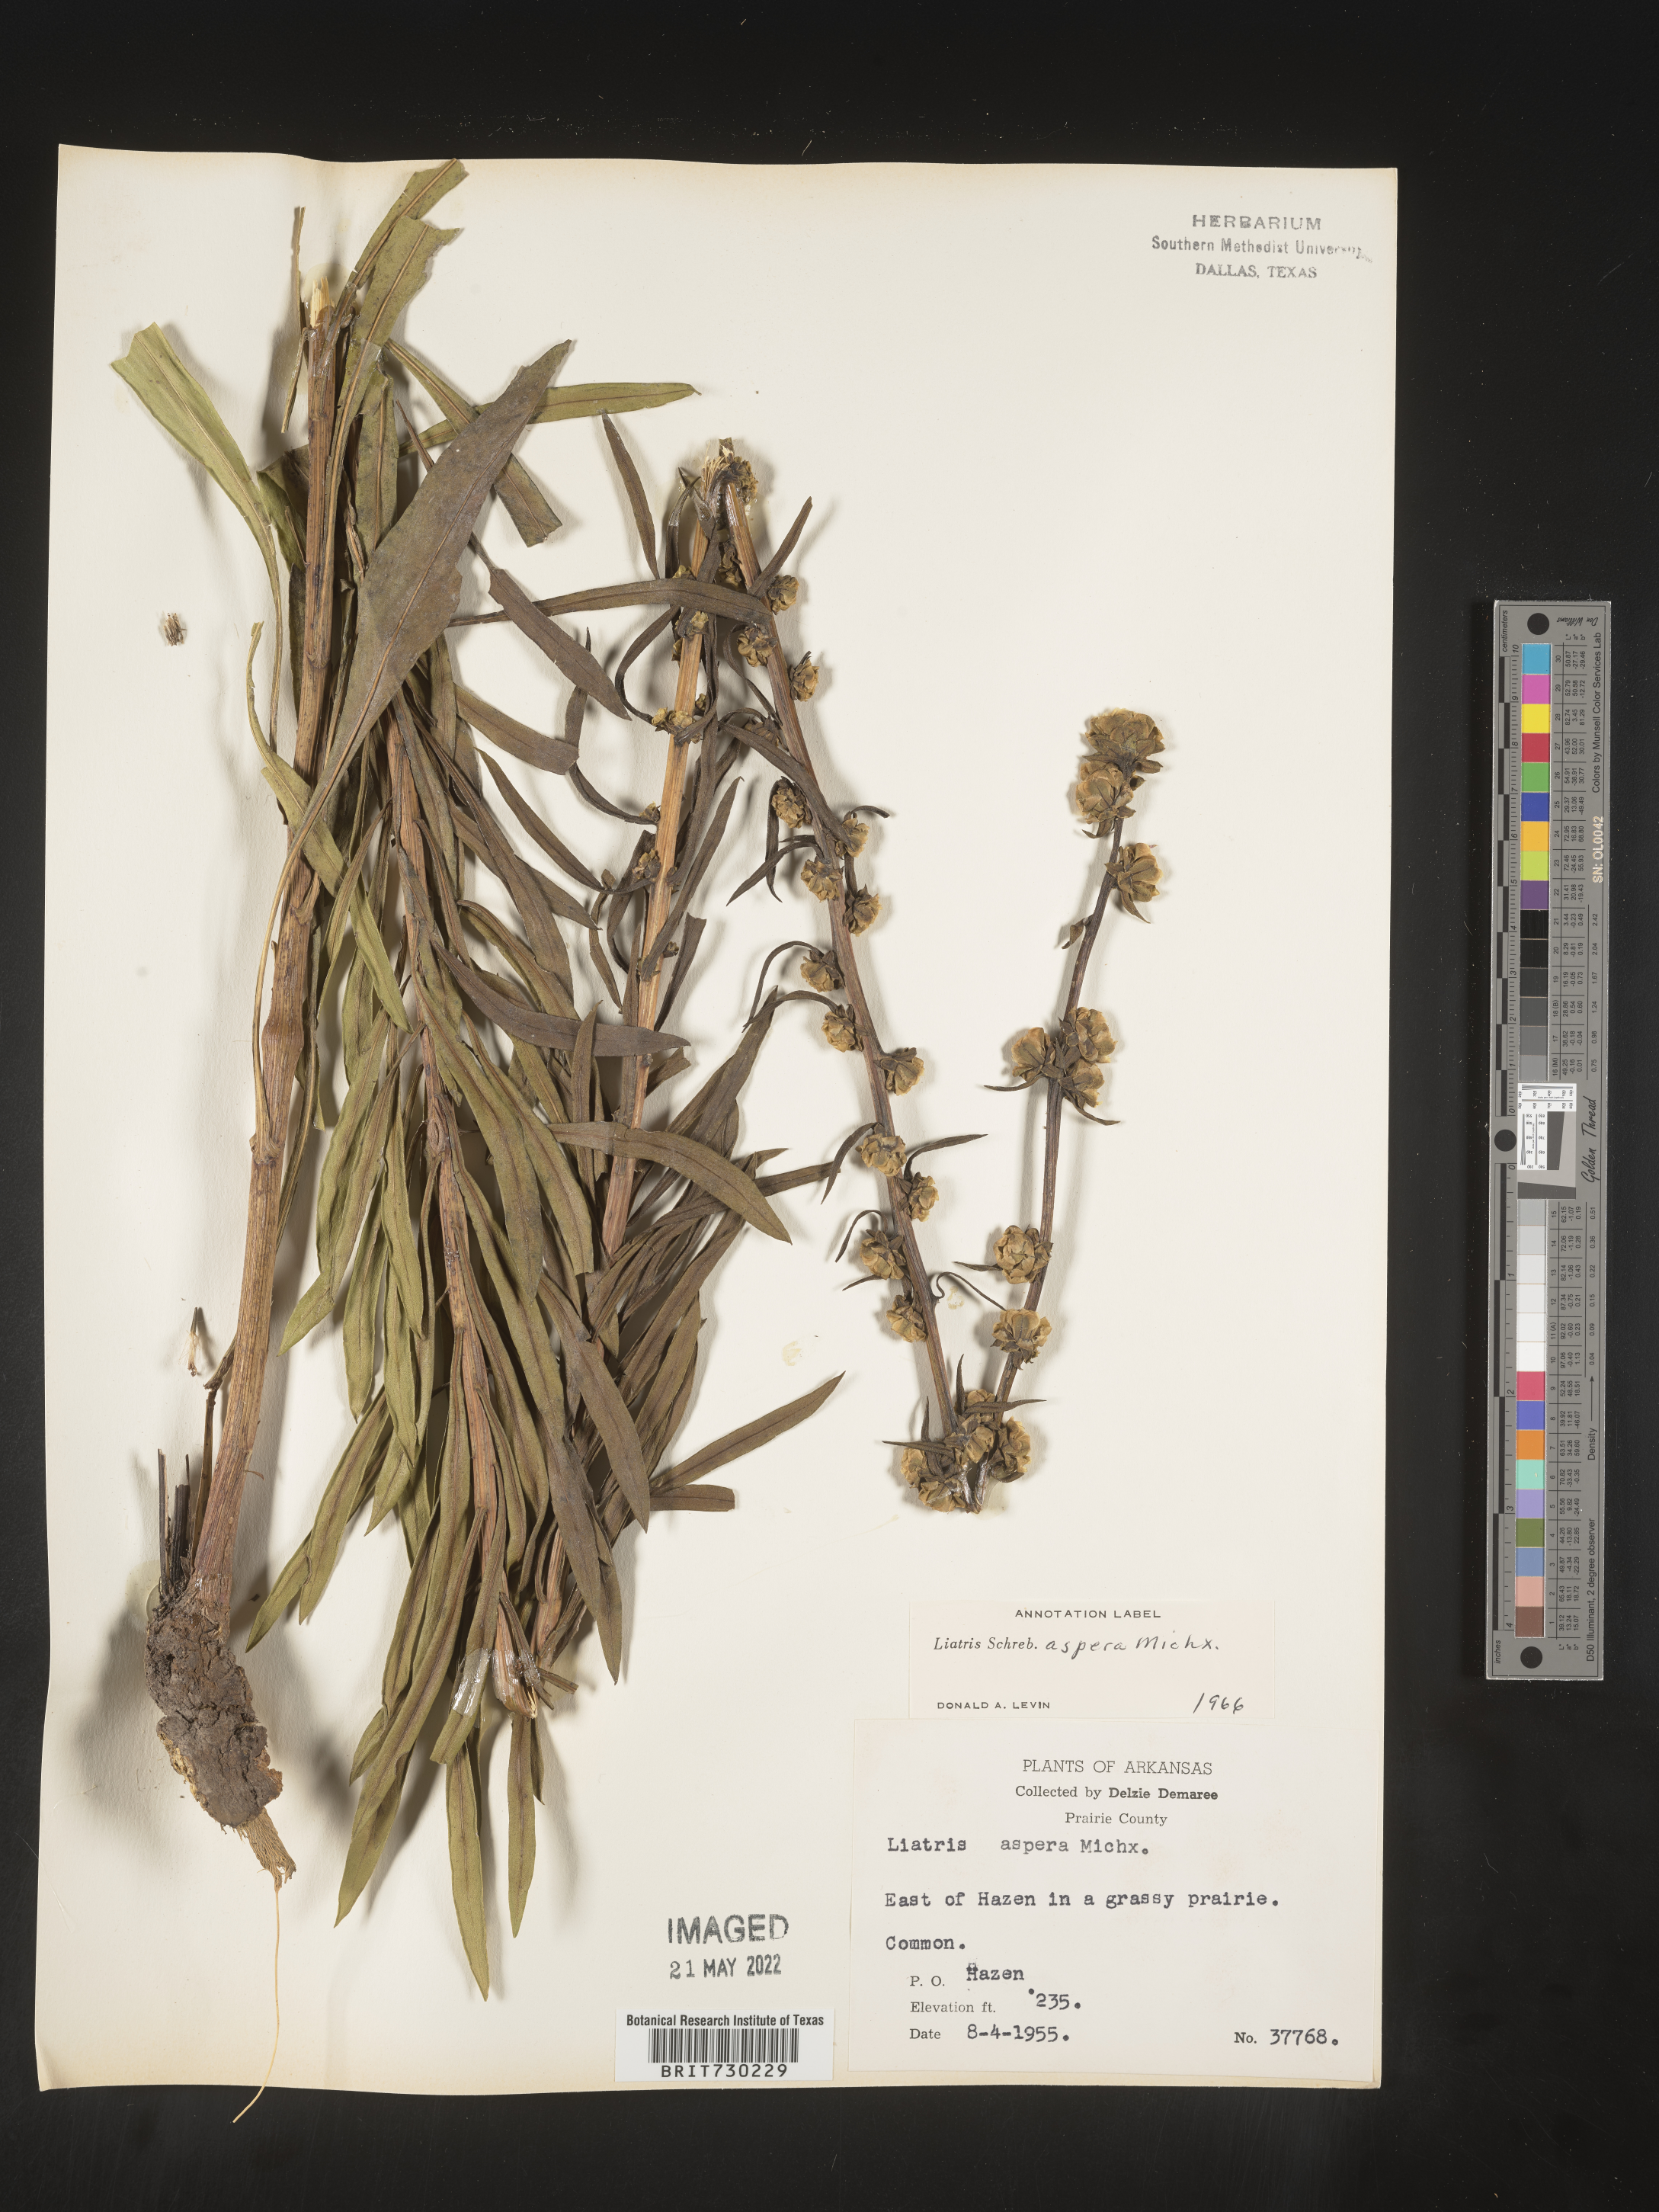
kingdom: Plantae
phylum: Tracheophyta
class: Magnoliopsida
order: Asterales
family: Asteraceae
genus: Liatris
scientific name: Liatris aspera
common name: Lacerate blazing-star
